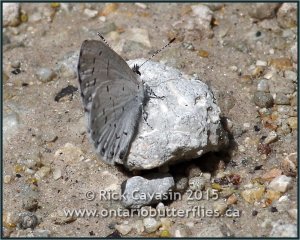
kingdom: Animalia
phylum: Arthropoda
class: Insecta
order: Lepidoptera
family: Lycaenidae
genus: Cyaniris
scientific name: Cyaniris neglecta
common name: Summer Azure
